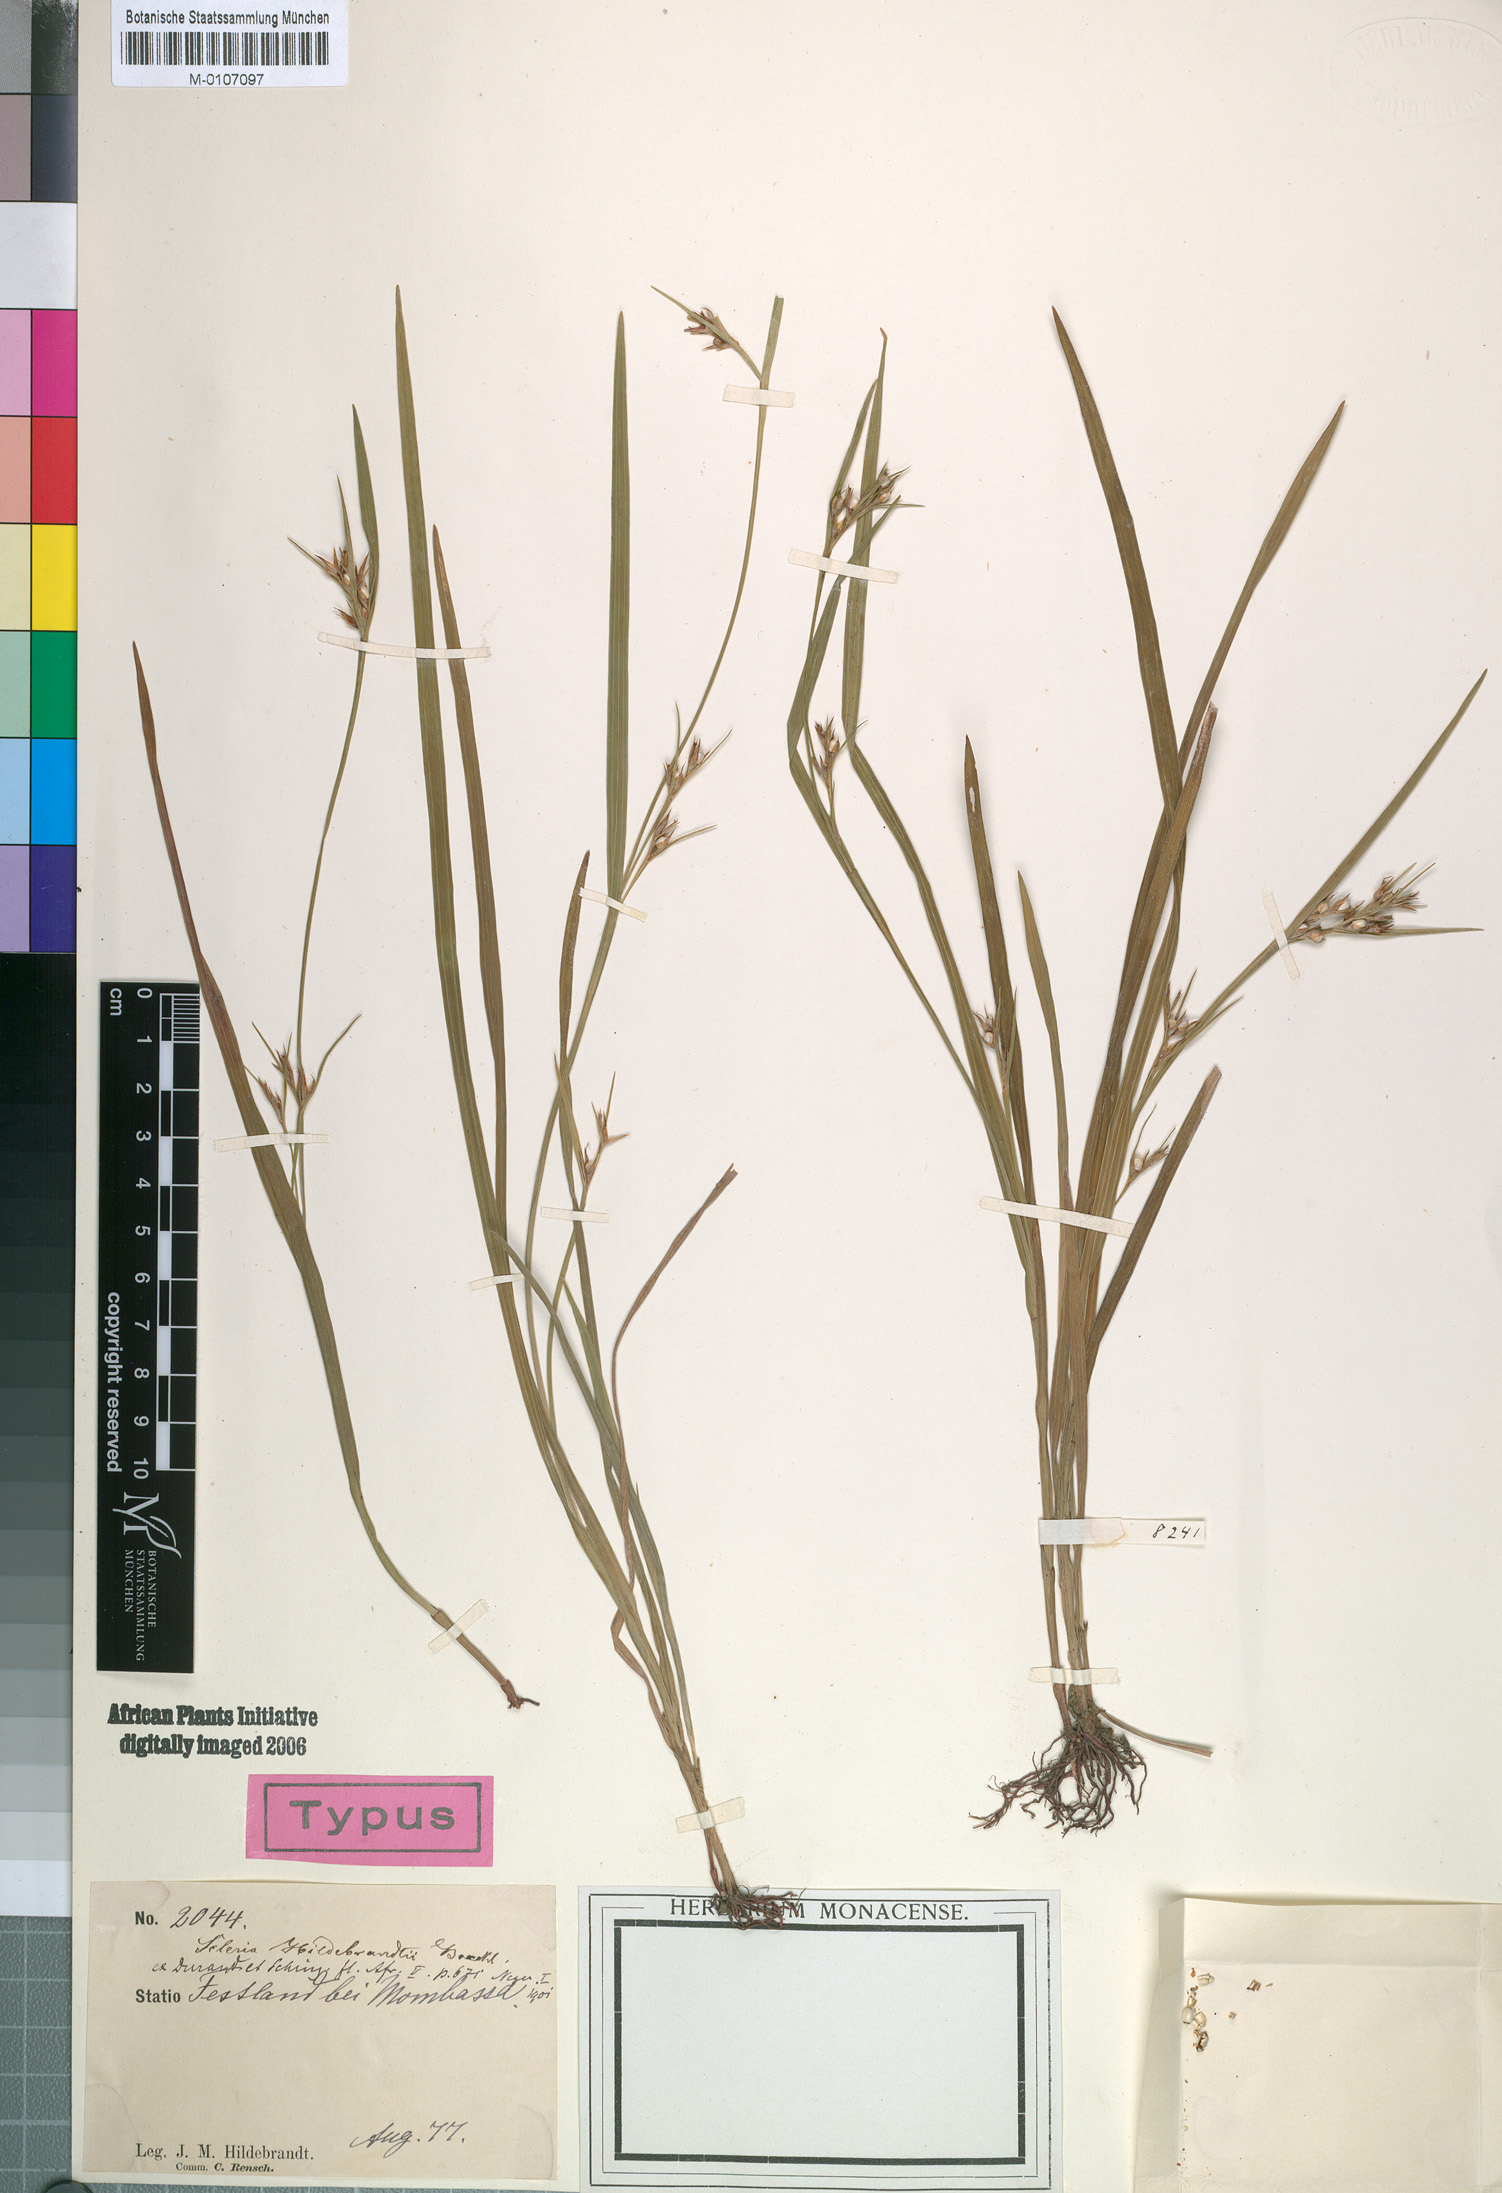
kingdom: Plantae
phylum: Tracheophyta
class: Liliopsida
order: Poales
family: Cyperaceae
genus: Scleria
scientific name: Scleria hildebrandtii
